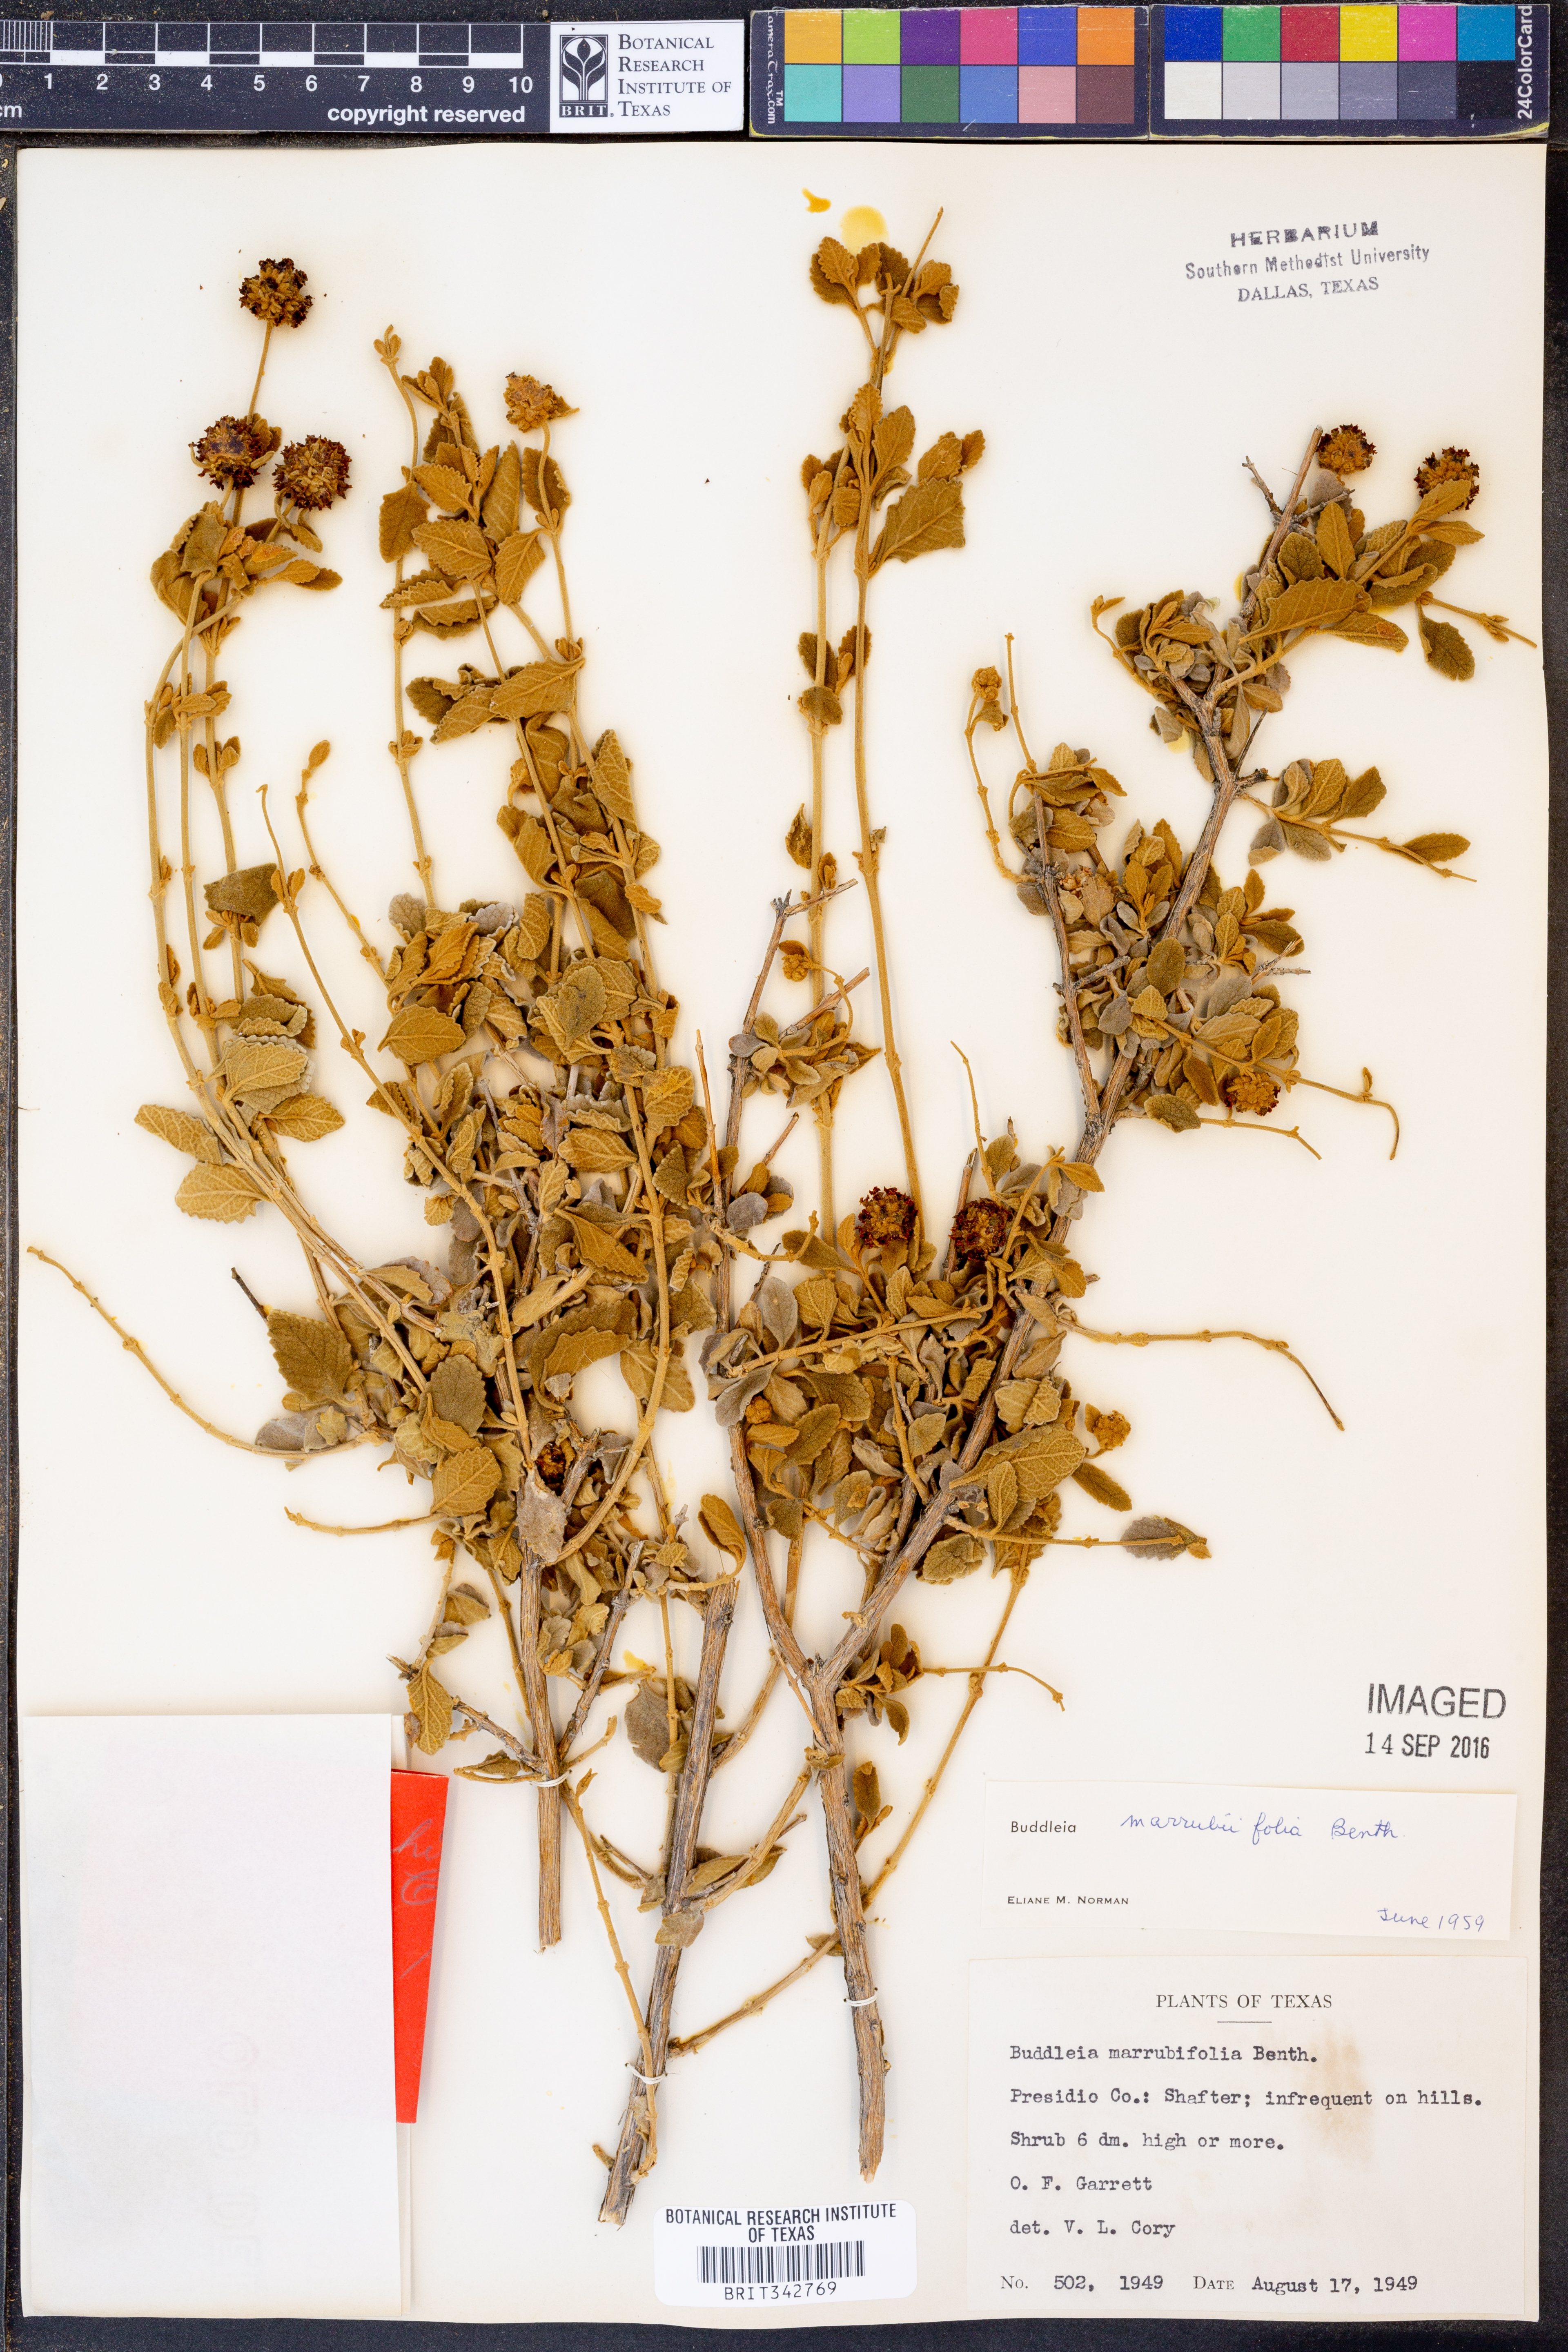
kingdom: Plantae
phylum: Tracheophyta
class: Magnoliopsida
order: Lamiales
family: Scrophulariaceae
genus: Buddleja
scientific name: Buddleja marrubiifolia
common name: Woolly butterfly-bush
